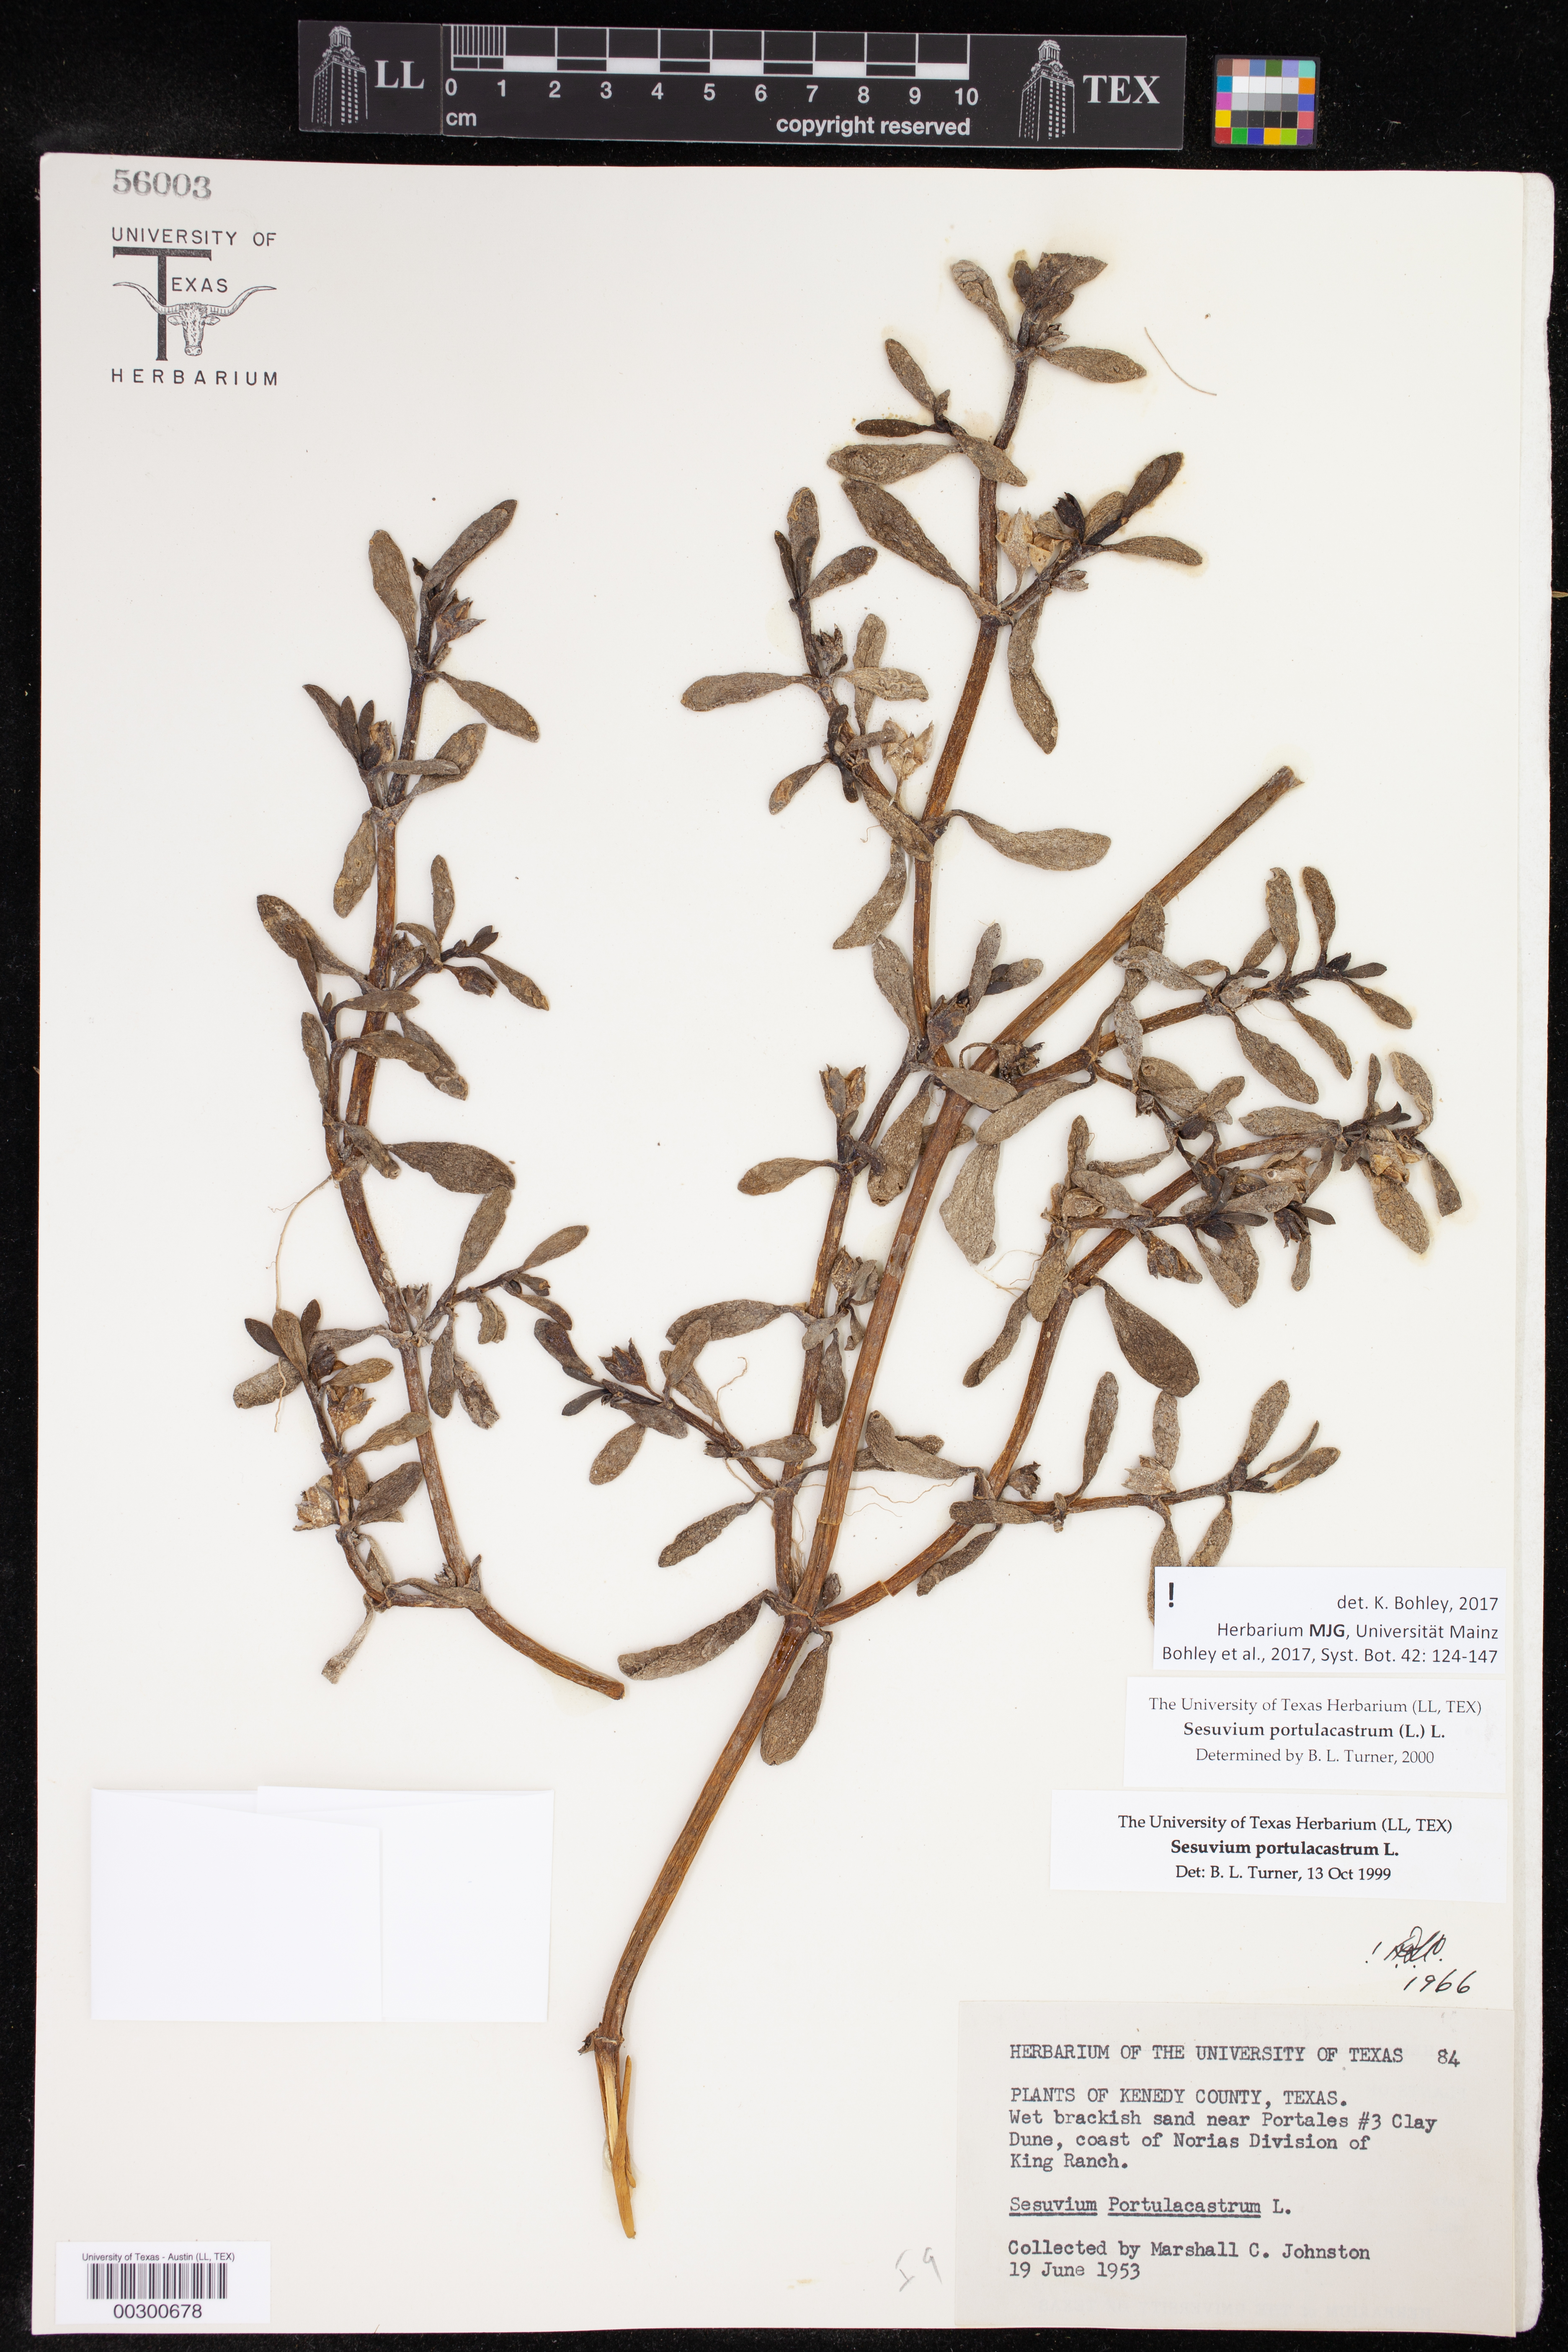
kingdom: Plantae
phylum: Tracheophyta
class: Magnoliopsida
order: Caryophyllales
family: Aizoaceae
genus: Sesuvium
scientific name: Sesuvium portulacastrum
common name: Sea-purslane
